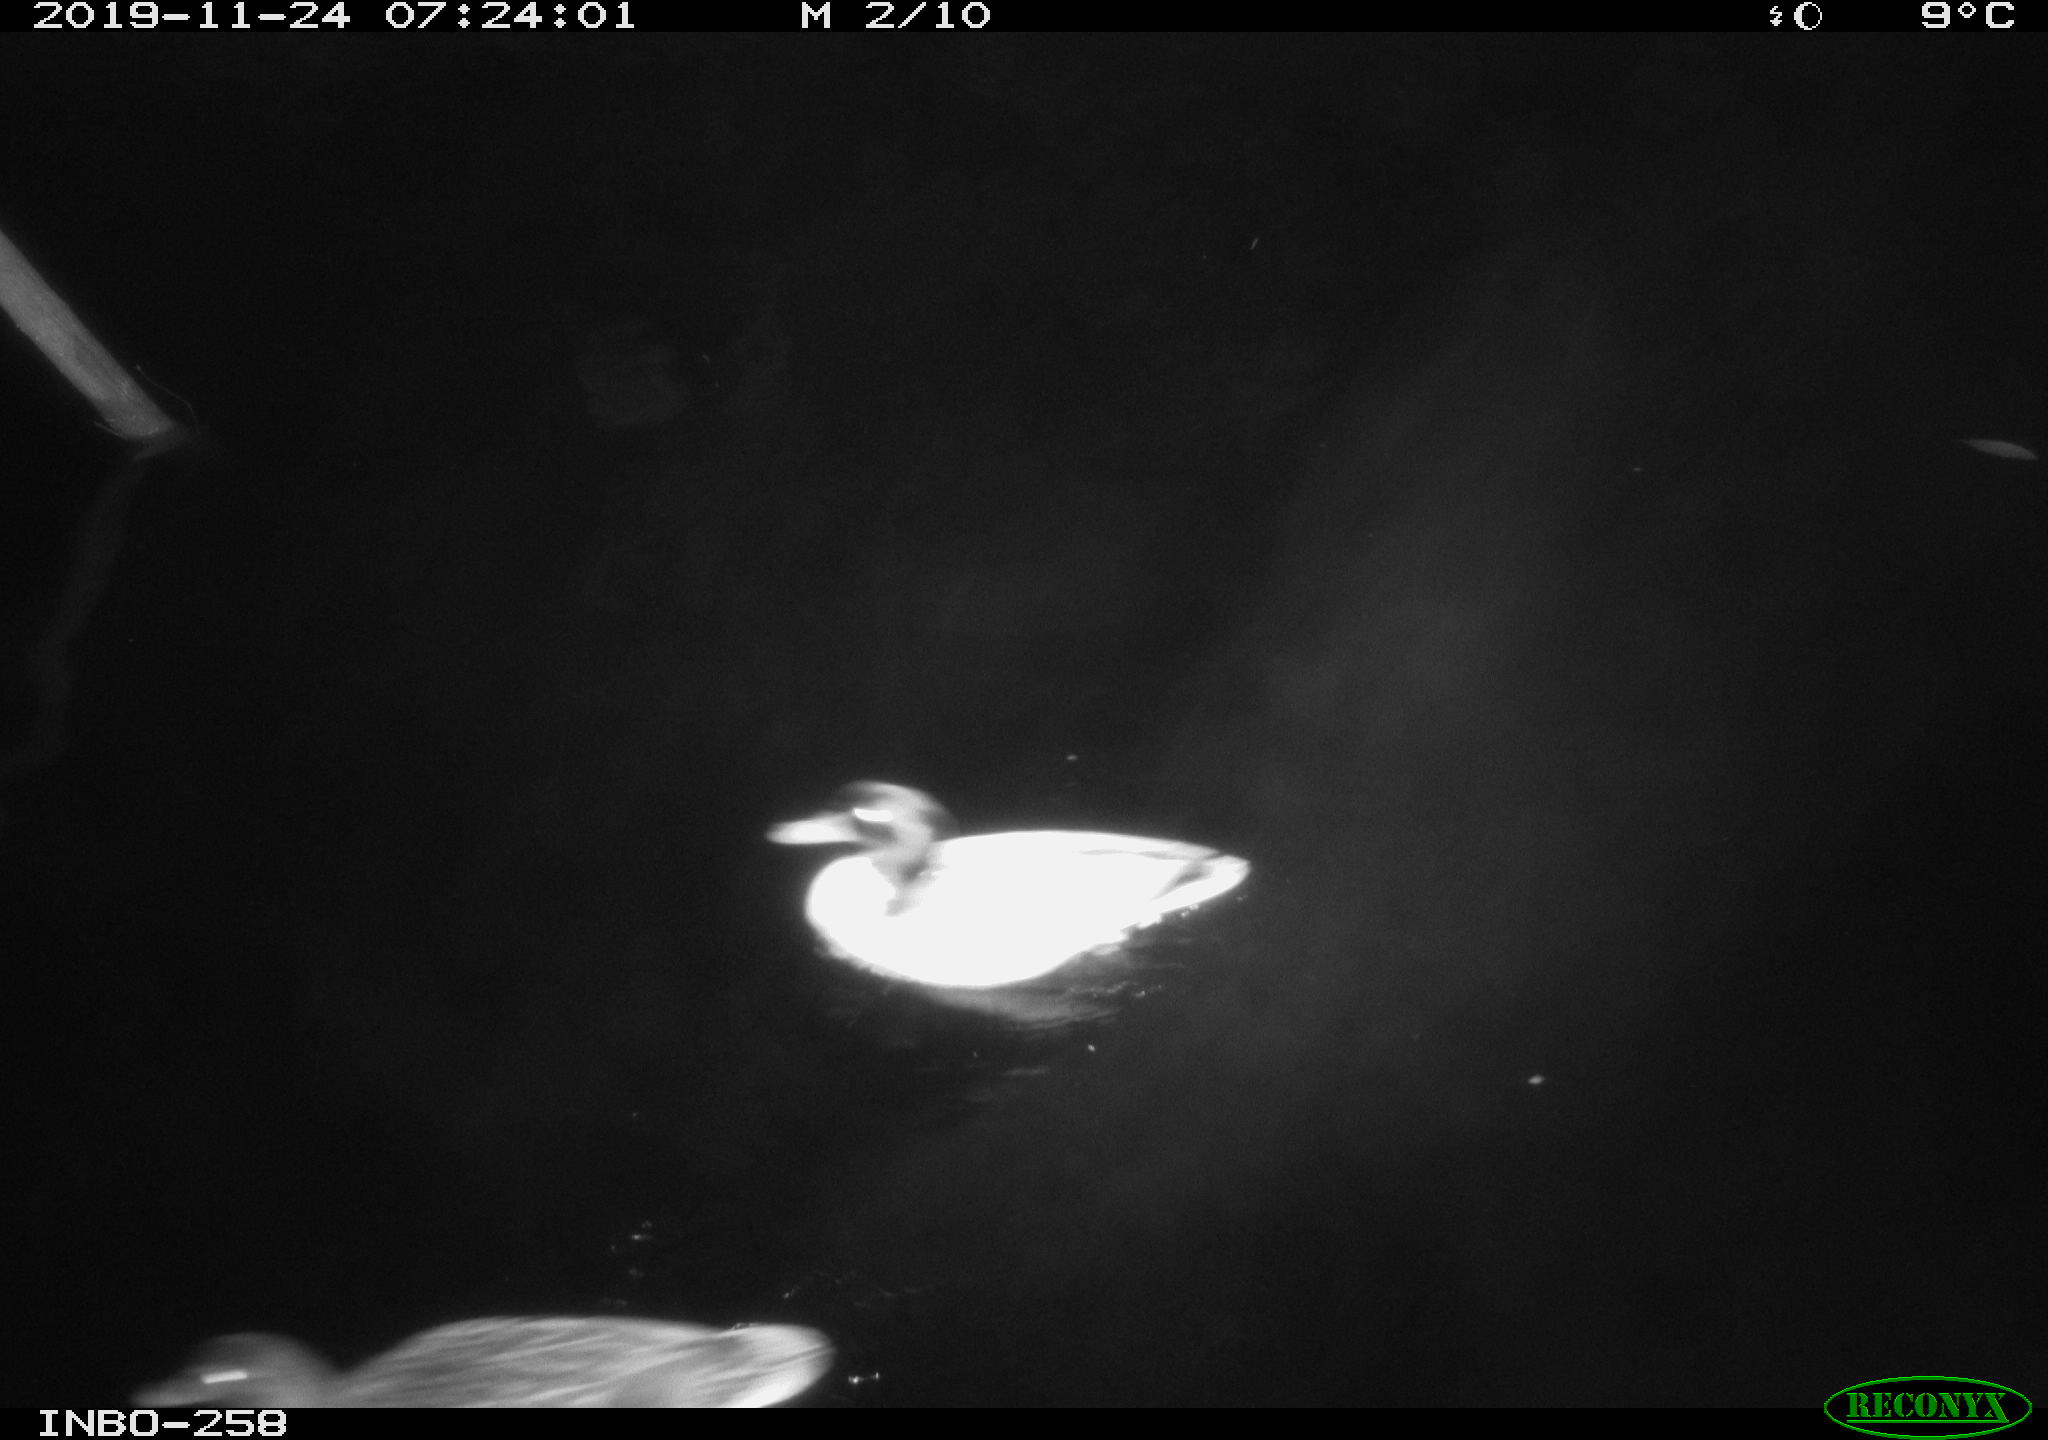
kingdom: Animalia
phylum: Chordata
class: Aves
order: Gruiformes
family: Rallidae
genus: Gallinula
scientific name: Gallinula chloropus
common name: Common moorhen
